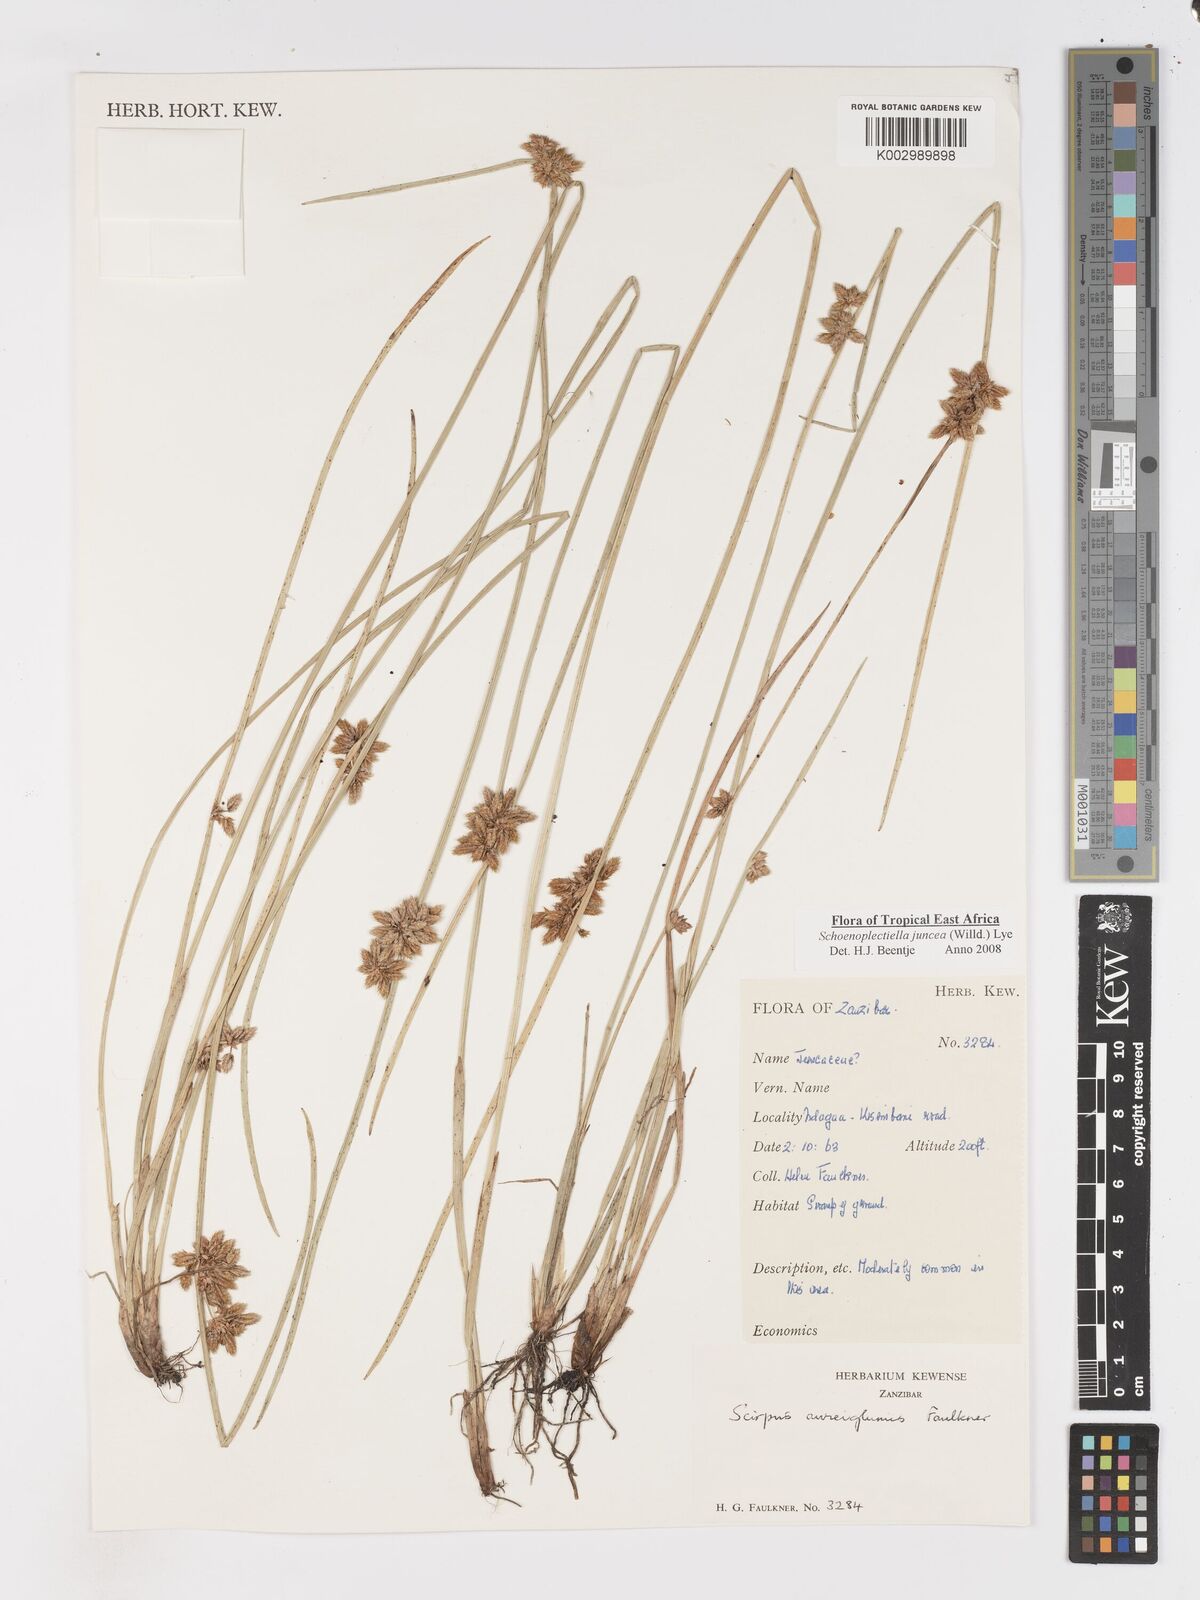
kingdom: Plantae
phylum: Tracheophyta
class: Liliopsida
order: Poales
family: Cyperaceae
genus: Schoenoplectiella
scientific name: Schoenoplectiella juncea
